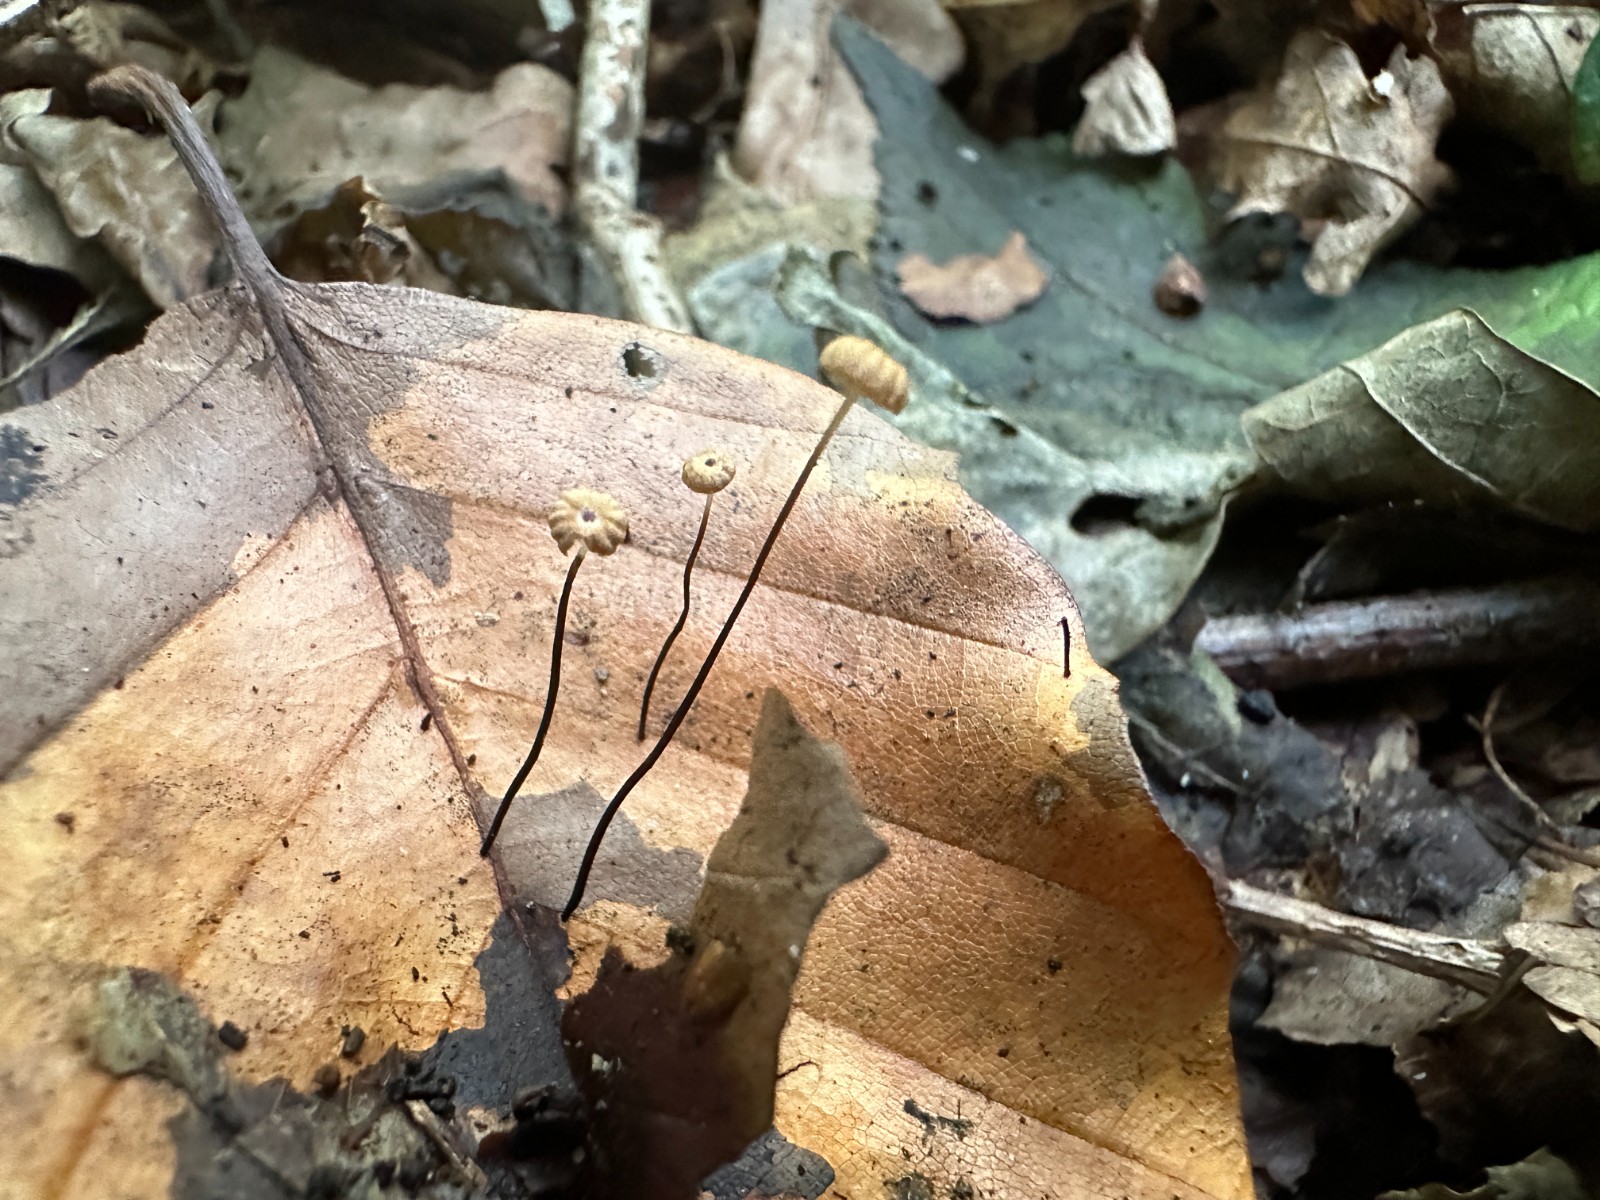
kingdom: Fungi
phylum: Basidiomycota
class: Agaricomycetes
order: Agaricales
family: Marasmiaceae
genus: Marasmius
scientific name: Marasmius bulliardii
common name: furet bruskhat
